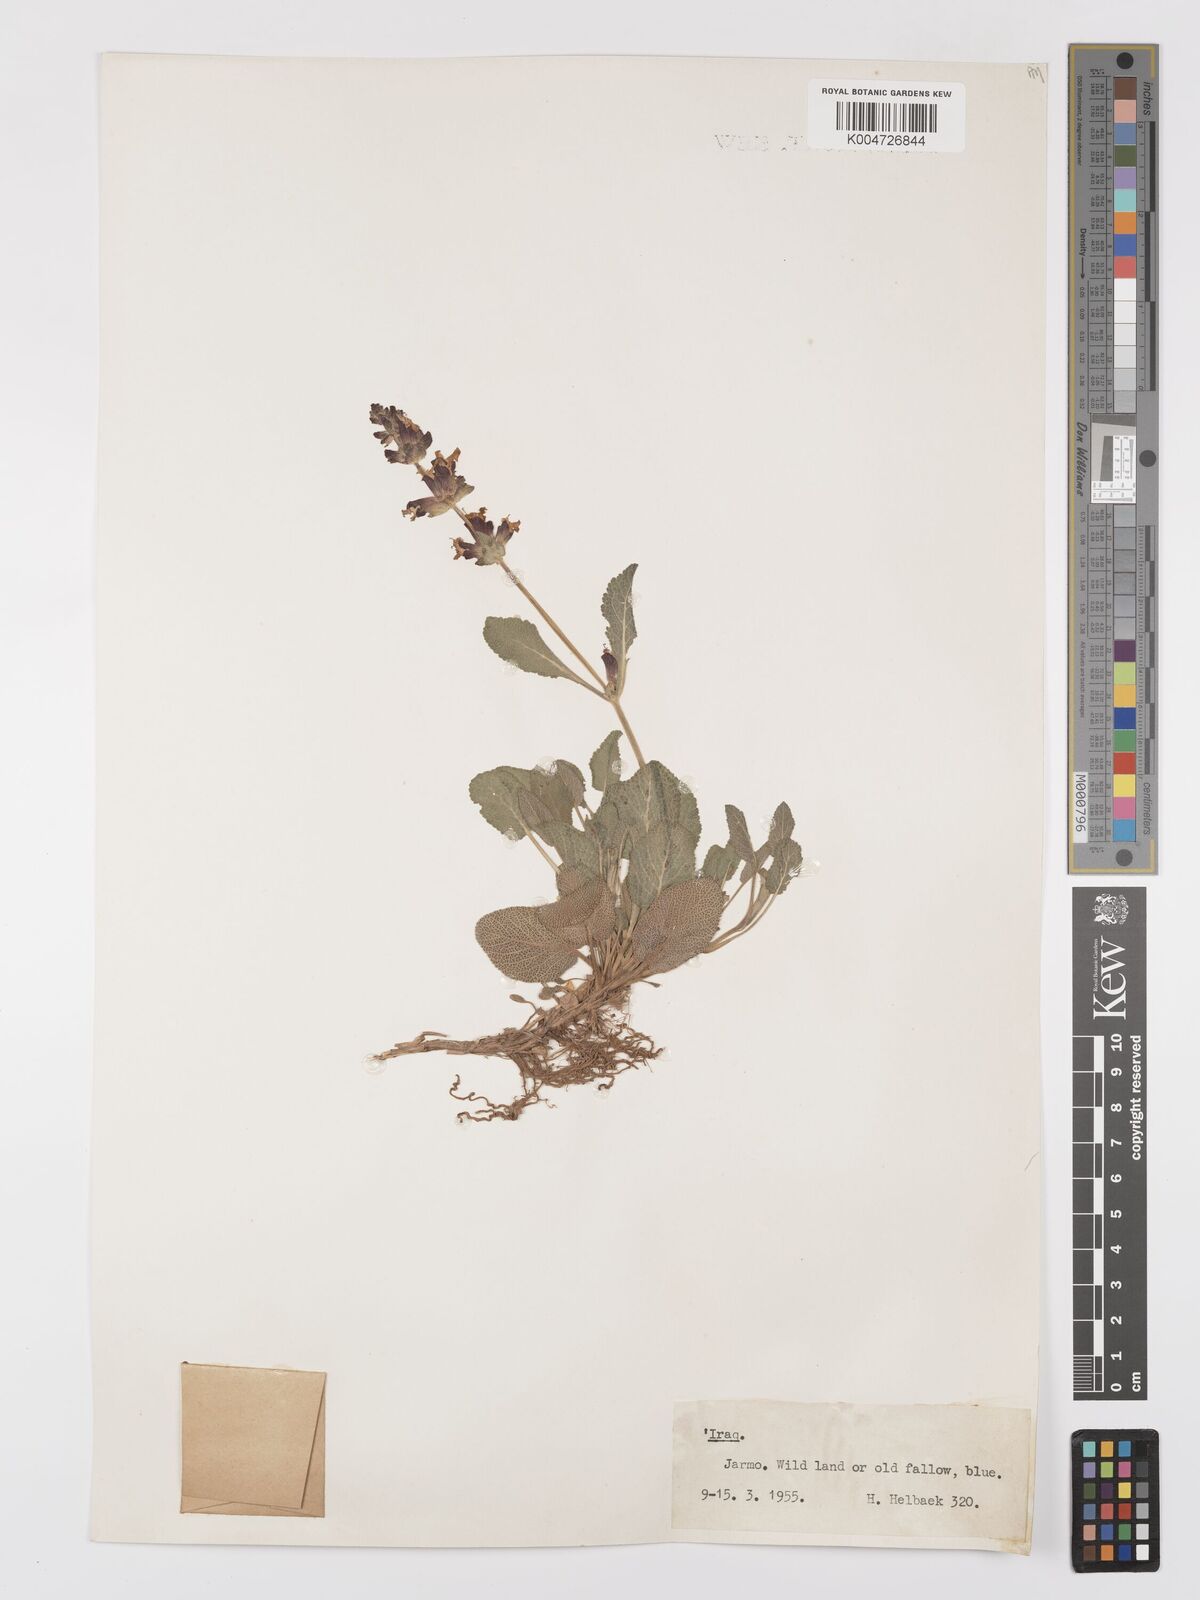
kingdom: Plantae
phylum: Tracheophyta
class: Magnoliopsida
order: Lamiales
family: Lamiaceae
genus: Salvia
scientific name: Salvia
